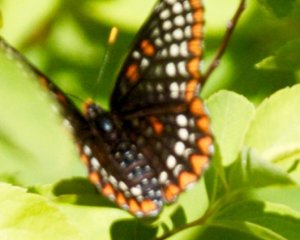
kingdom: Animalia
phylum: Arthropoda
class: Insecta
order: Lepidoptera
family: Nymphalidae
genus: Euphydryas
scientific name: Euphydryas phaeton
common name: Baltimore Checkerspot
